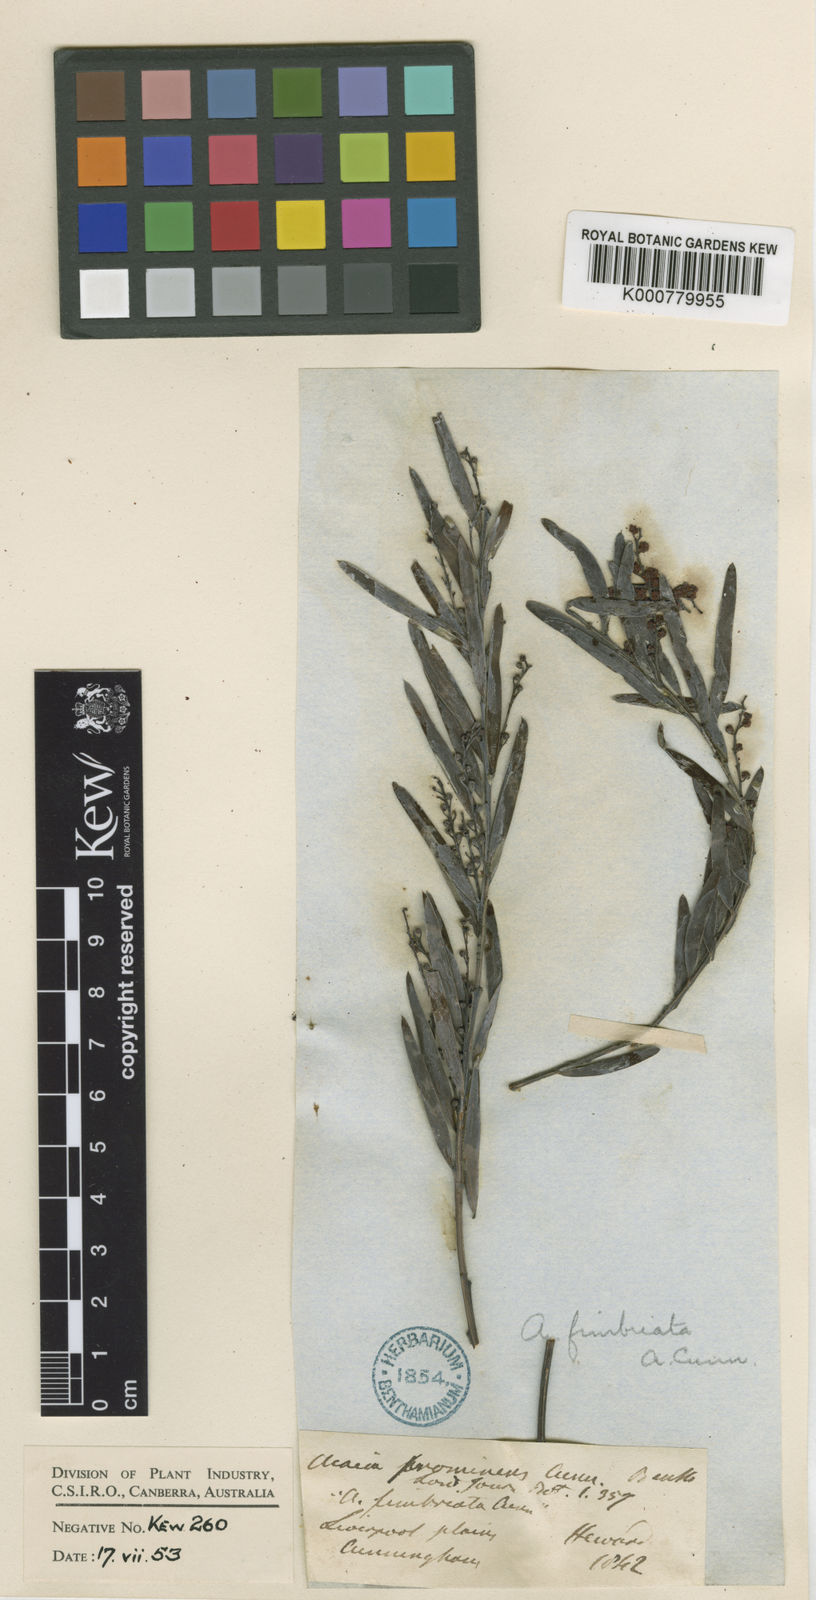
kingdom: Plantae
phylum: Tracheophyta
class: Magnoliopsida
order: Fabales
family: Fabaceae
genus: Acacia
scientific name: Acacia
